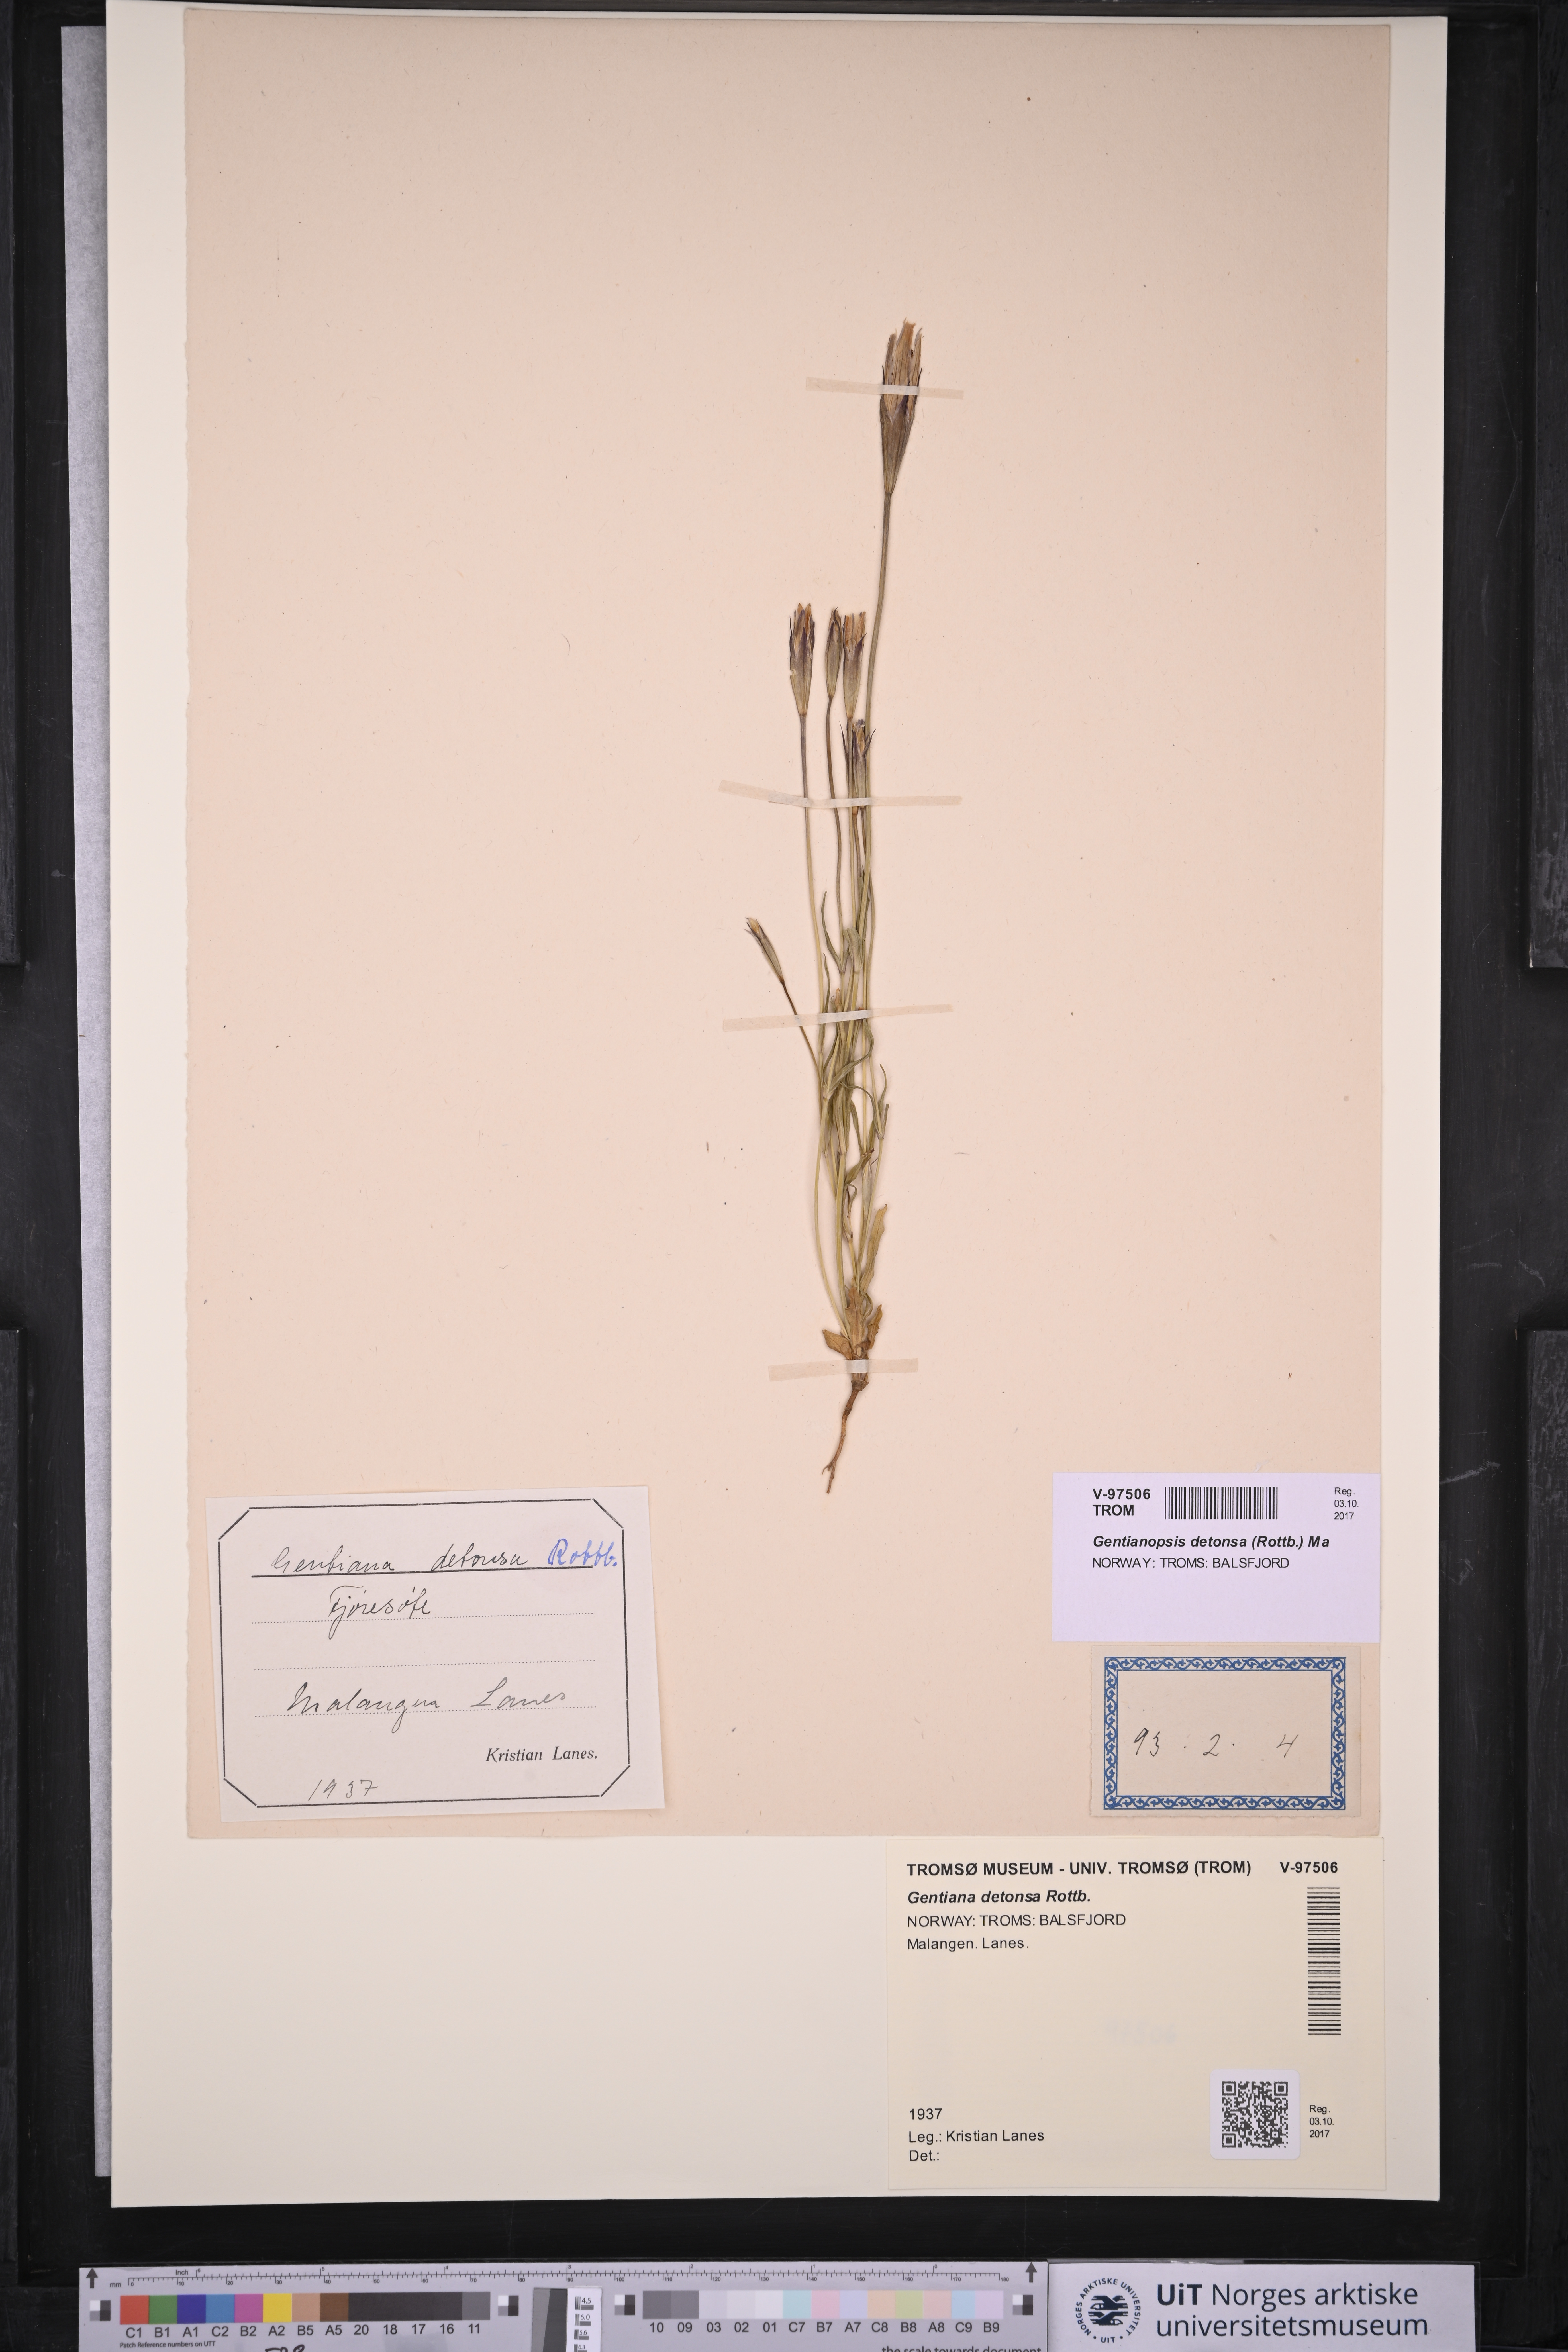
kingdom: Plantae
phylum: Tracheophyta
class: Magnoliopsida
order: Gentianales
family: Gentianaceae
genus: Gentianopsis
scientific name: Gentianopsis detonsa
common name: Fringed-gentian
